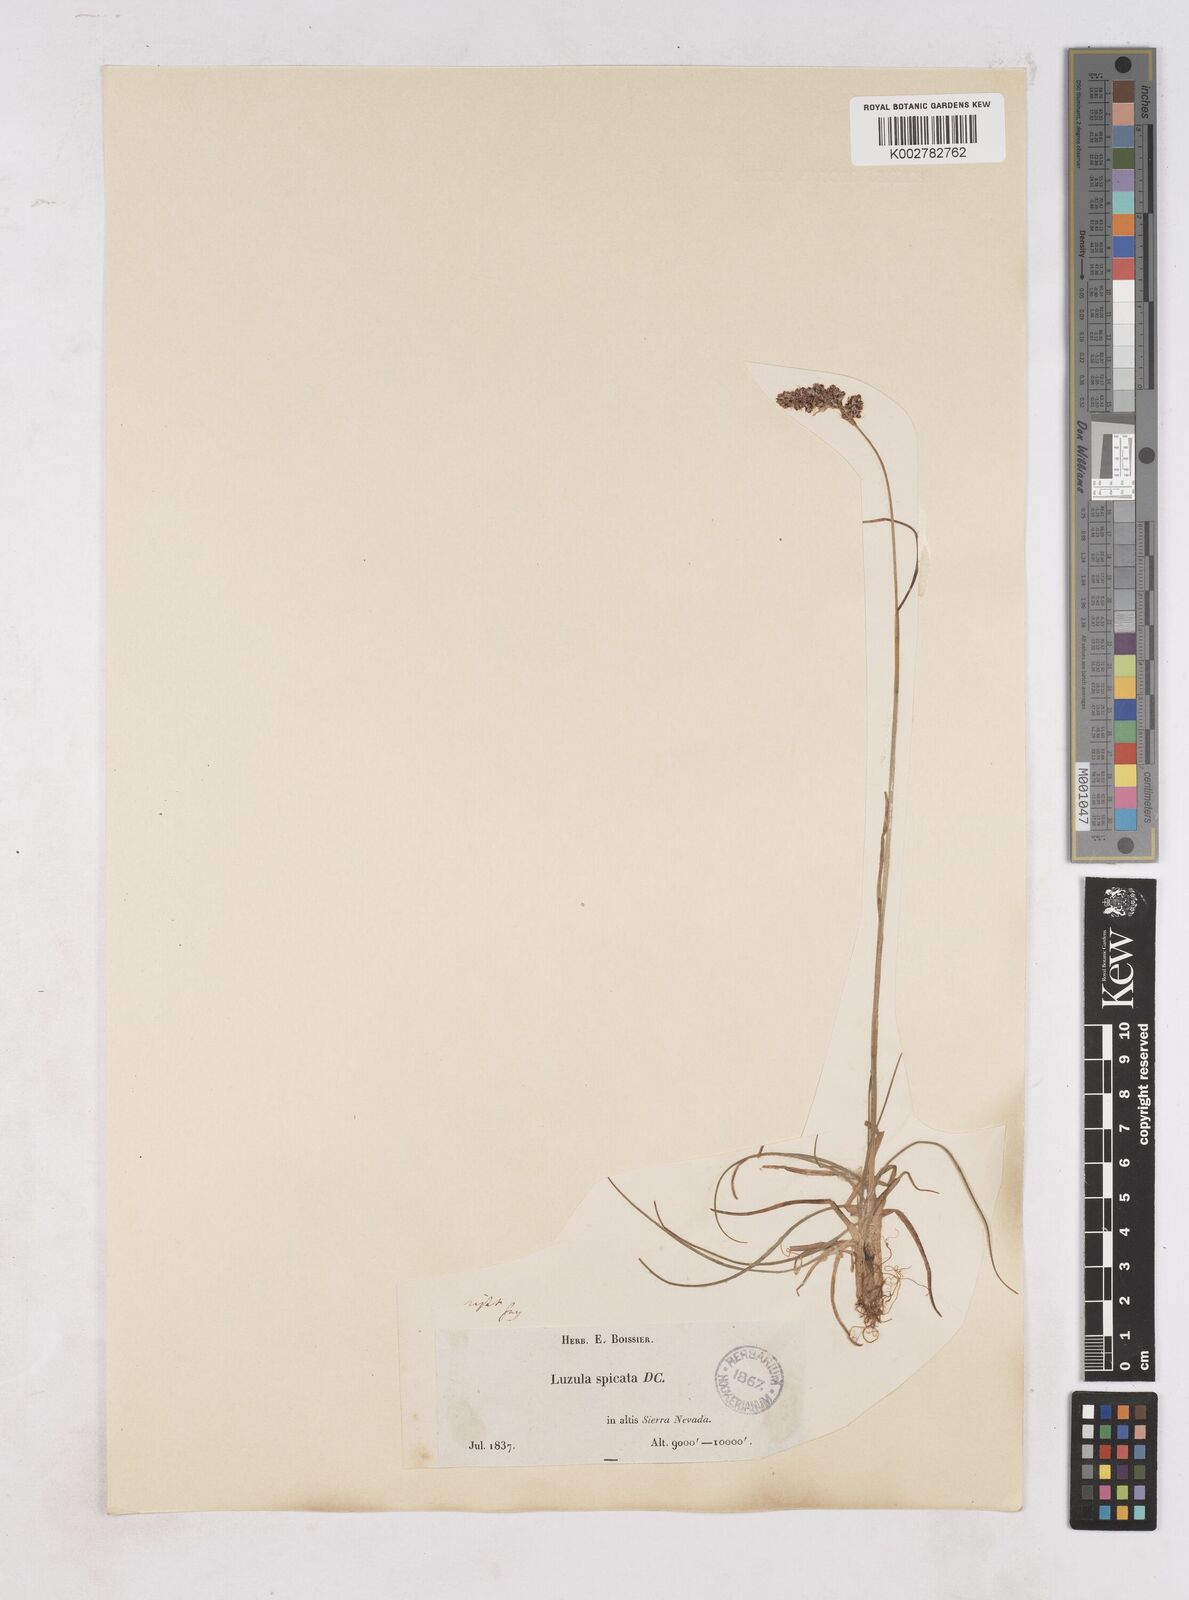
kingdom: Plantae
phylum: Tracheophyta
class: Liliopsida
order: Poales
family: Juncaceae
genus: Luzula
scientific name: Luzula spicata
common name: Spiked wood-rush
